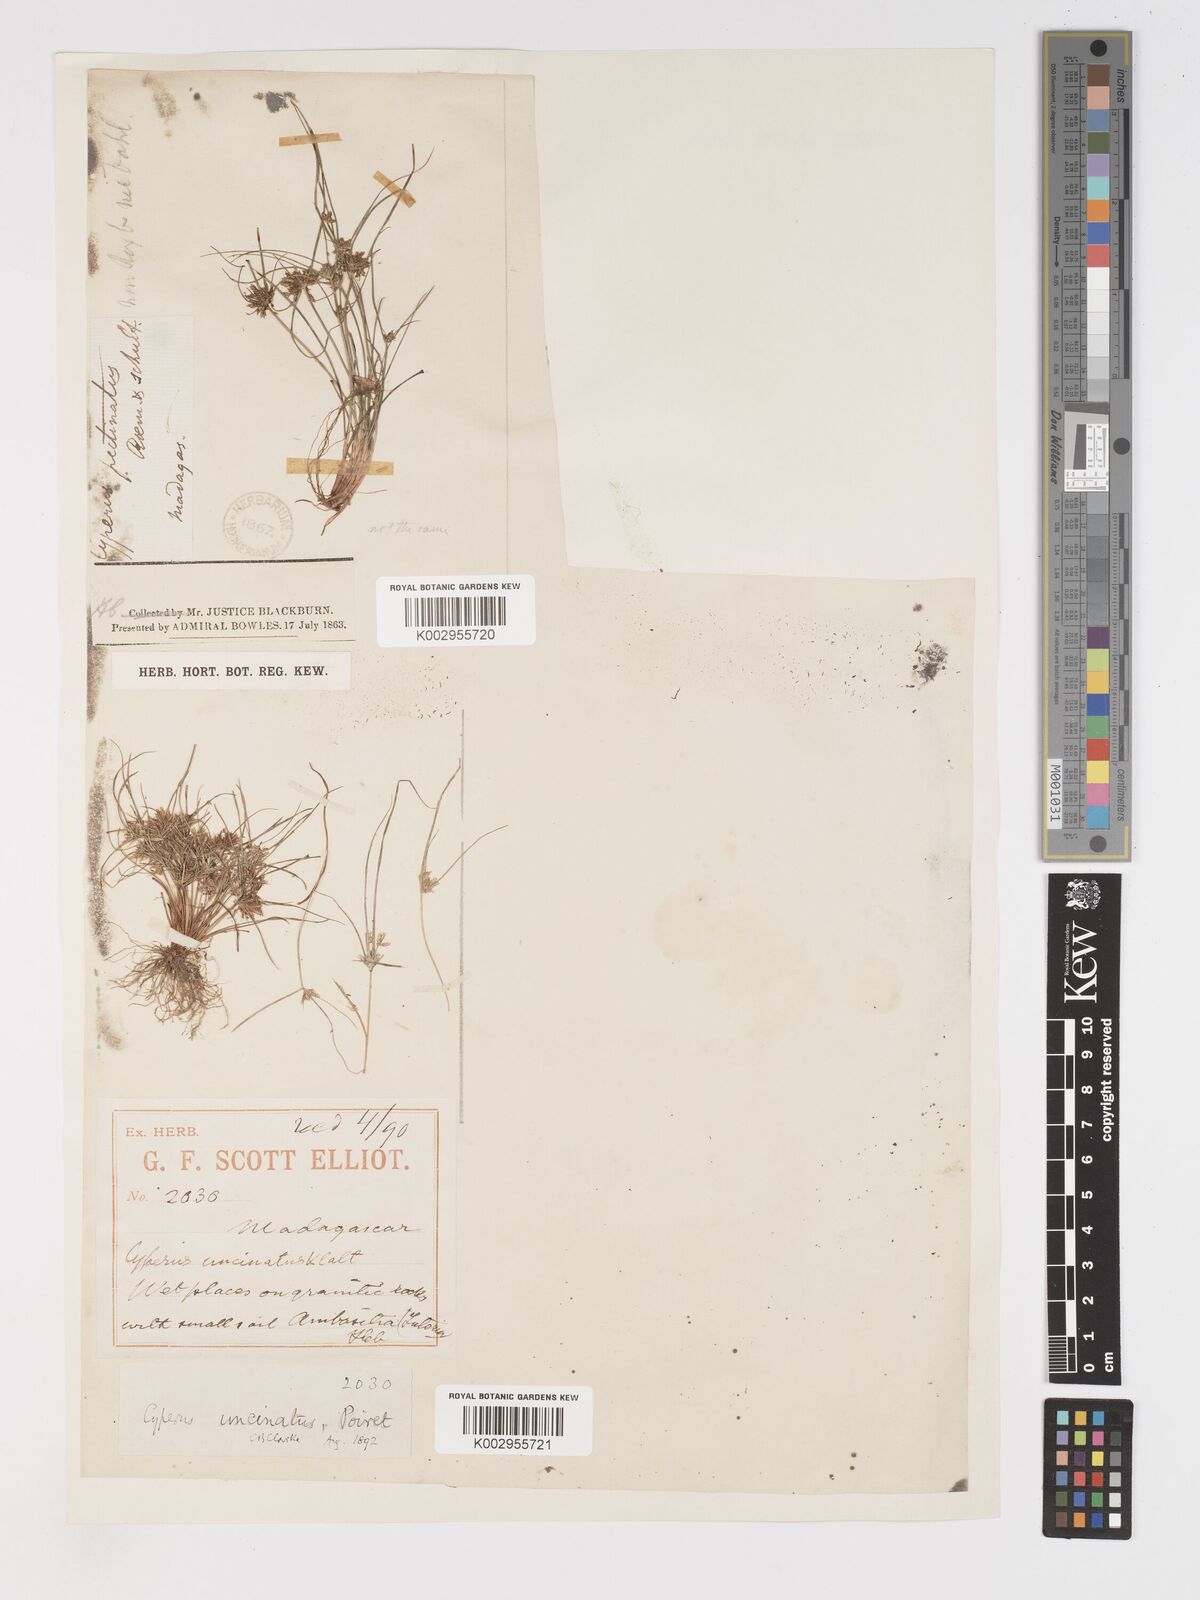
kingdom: Plantae
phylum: Tracheophyta
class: Liliopsida
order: Poales
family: Cyperaceae
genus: Cyperus
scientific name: Cyperus cuspidatus
